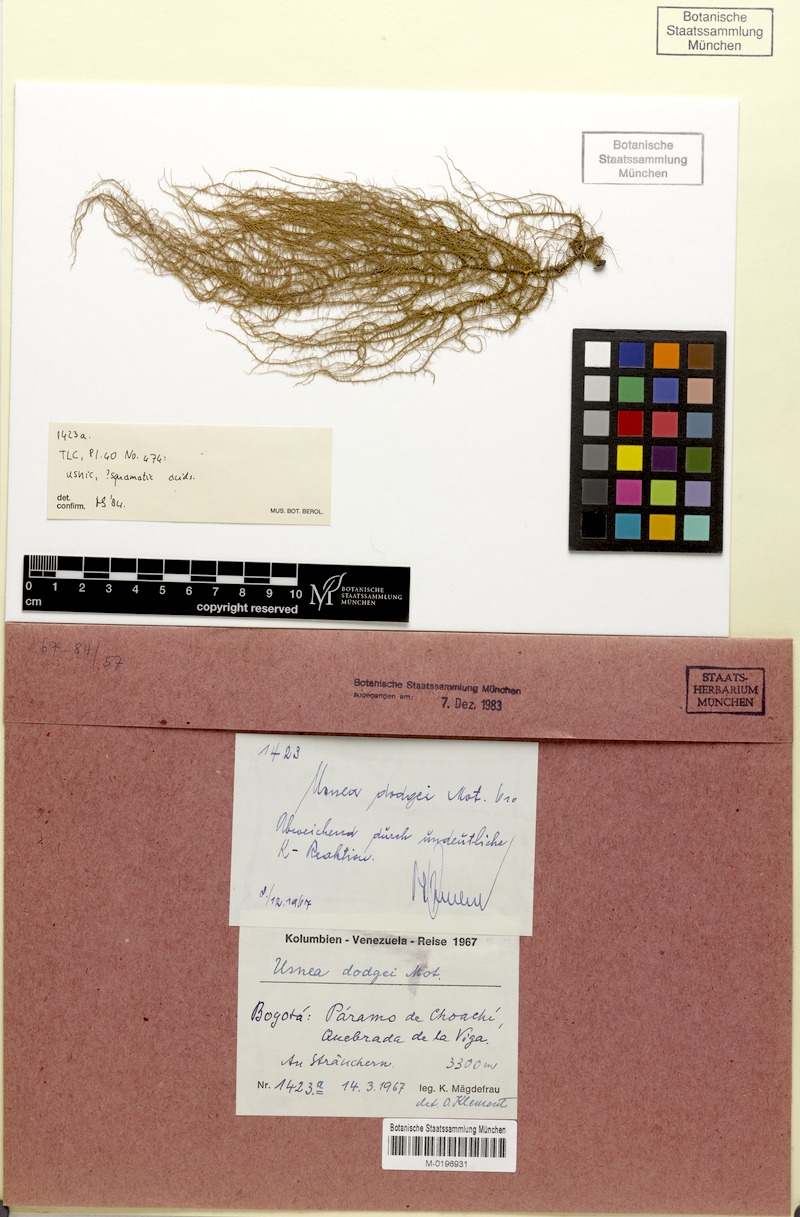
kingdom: Fungi
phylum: Ascomycota
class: Lecanoromycetes
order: Lecanorales
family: Parmeliaceae
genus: Usnea
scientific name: Usnea dodgei
